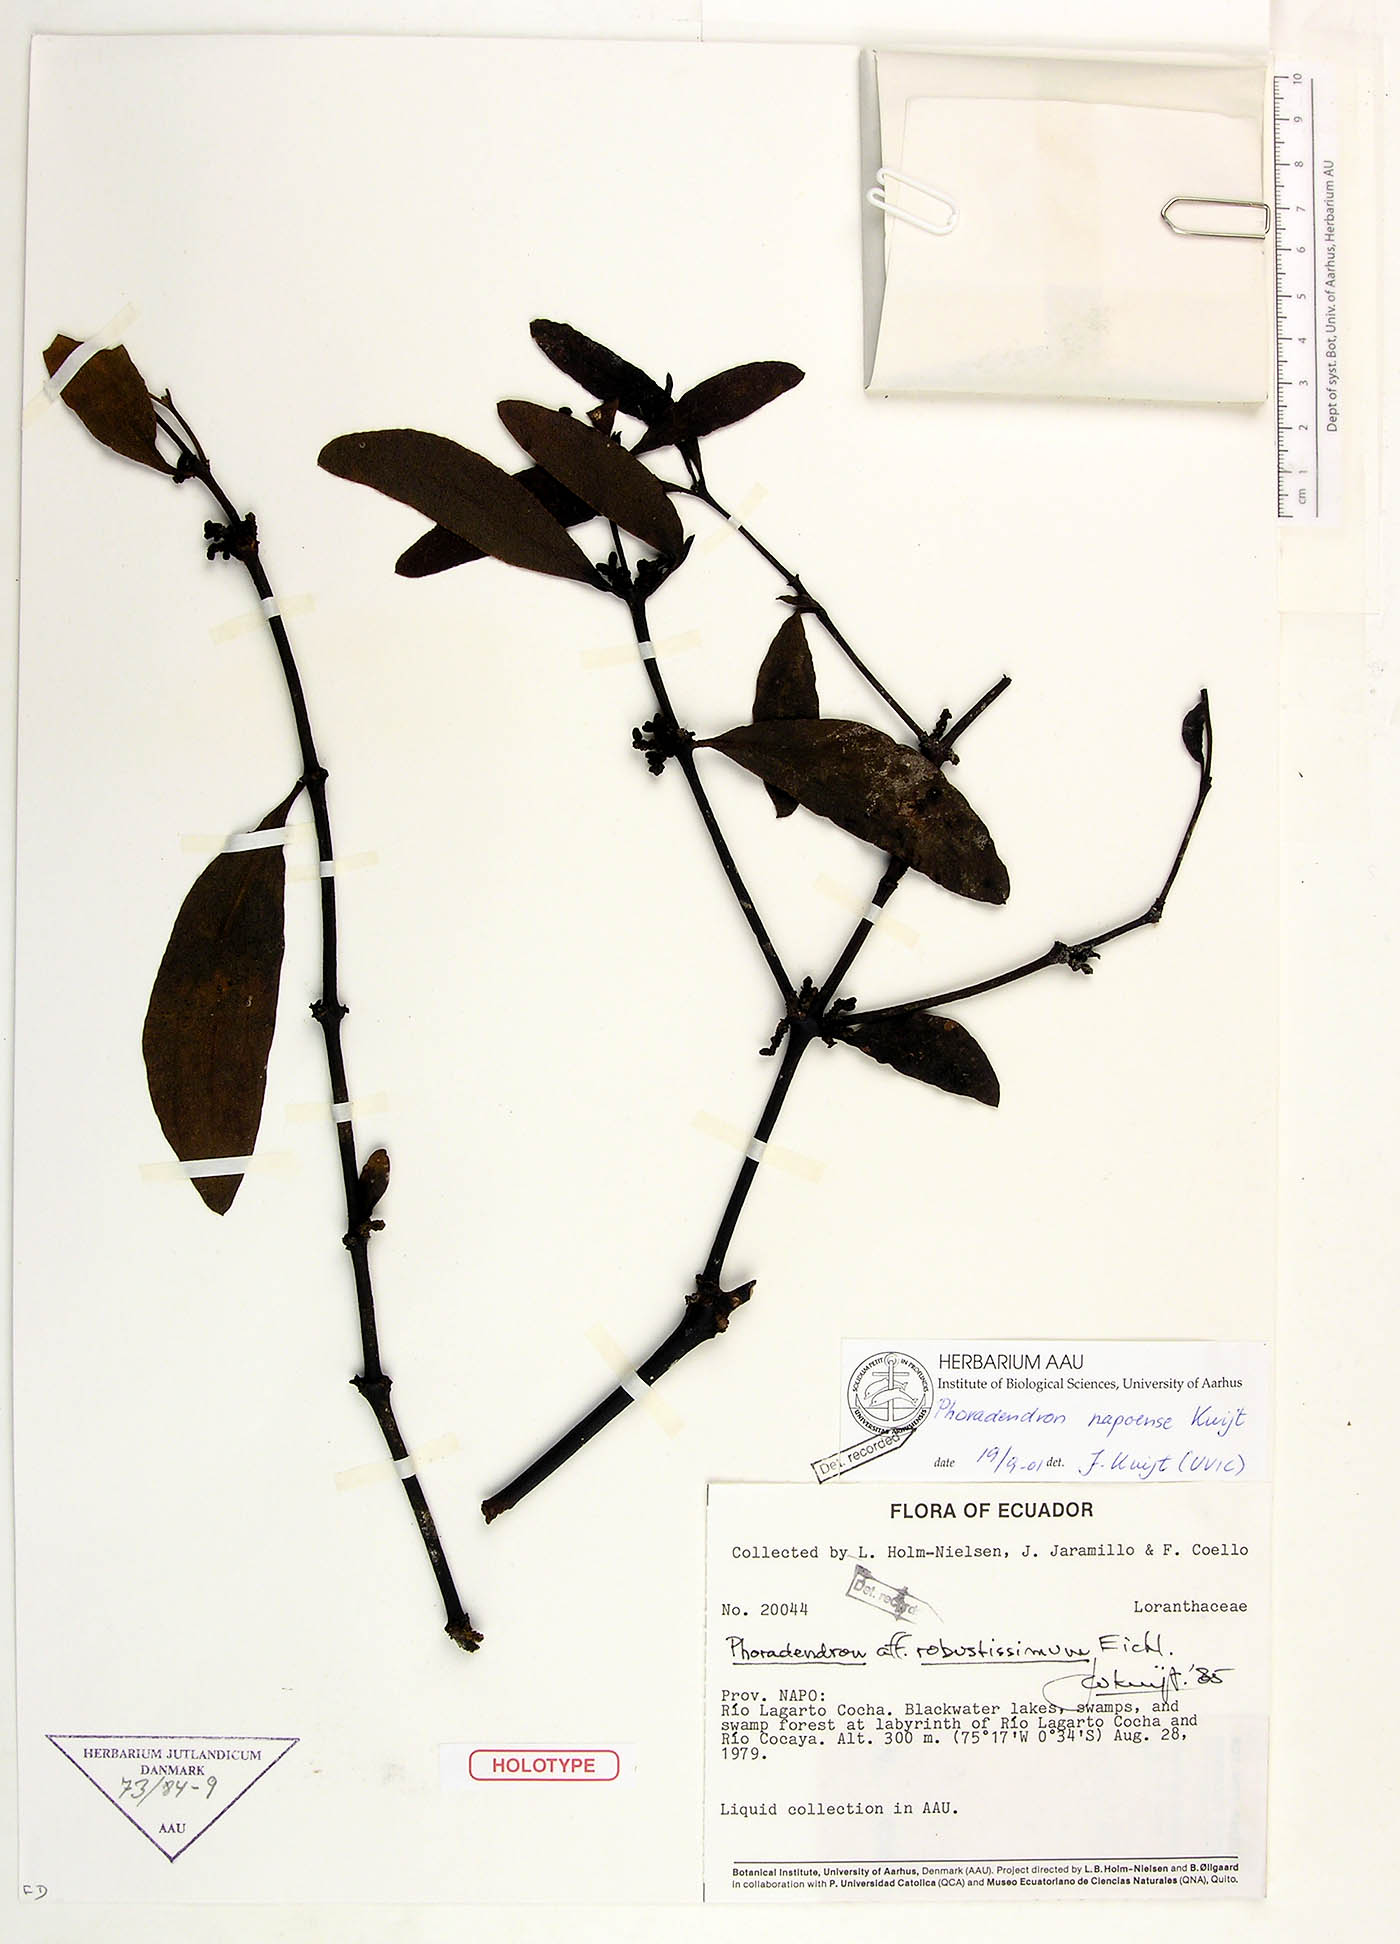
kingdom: Plantae
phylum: Tracheophyta
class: Magnoliopsida
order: Santalales
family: Viscaceae
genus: Phoradendron
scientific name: Phoradendron napoense
